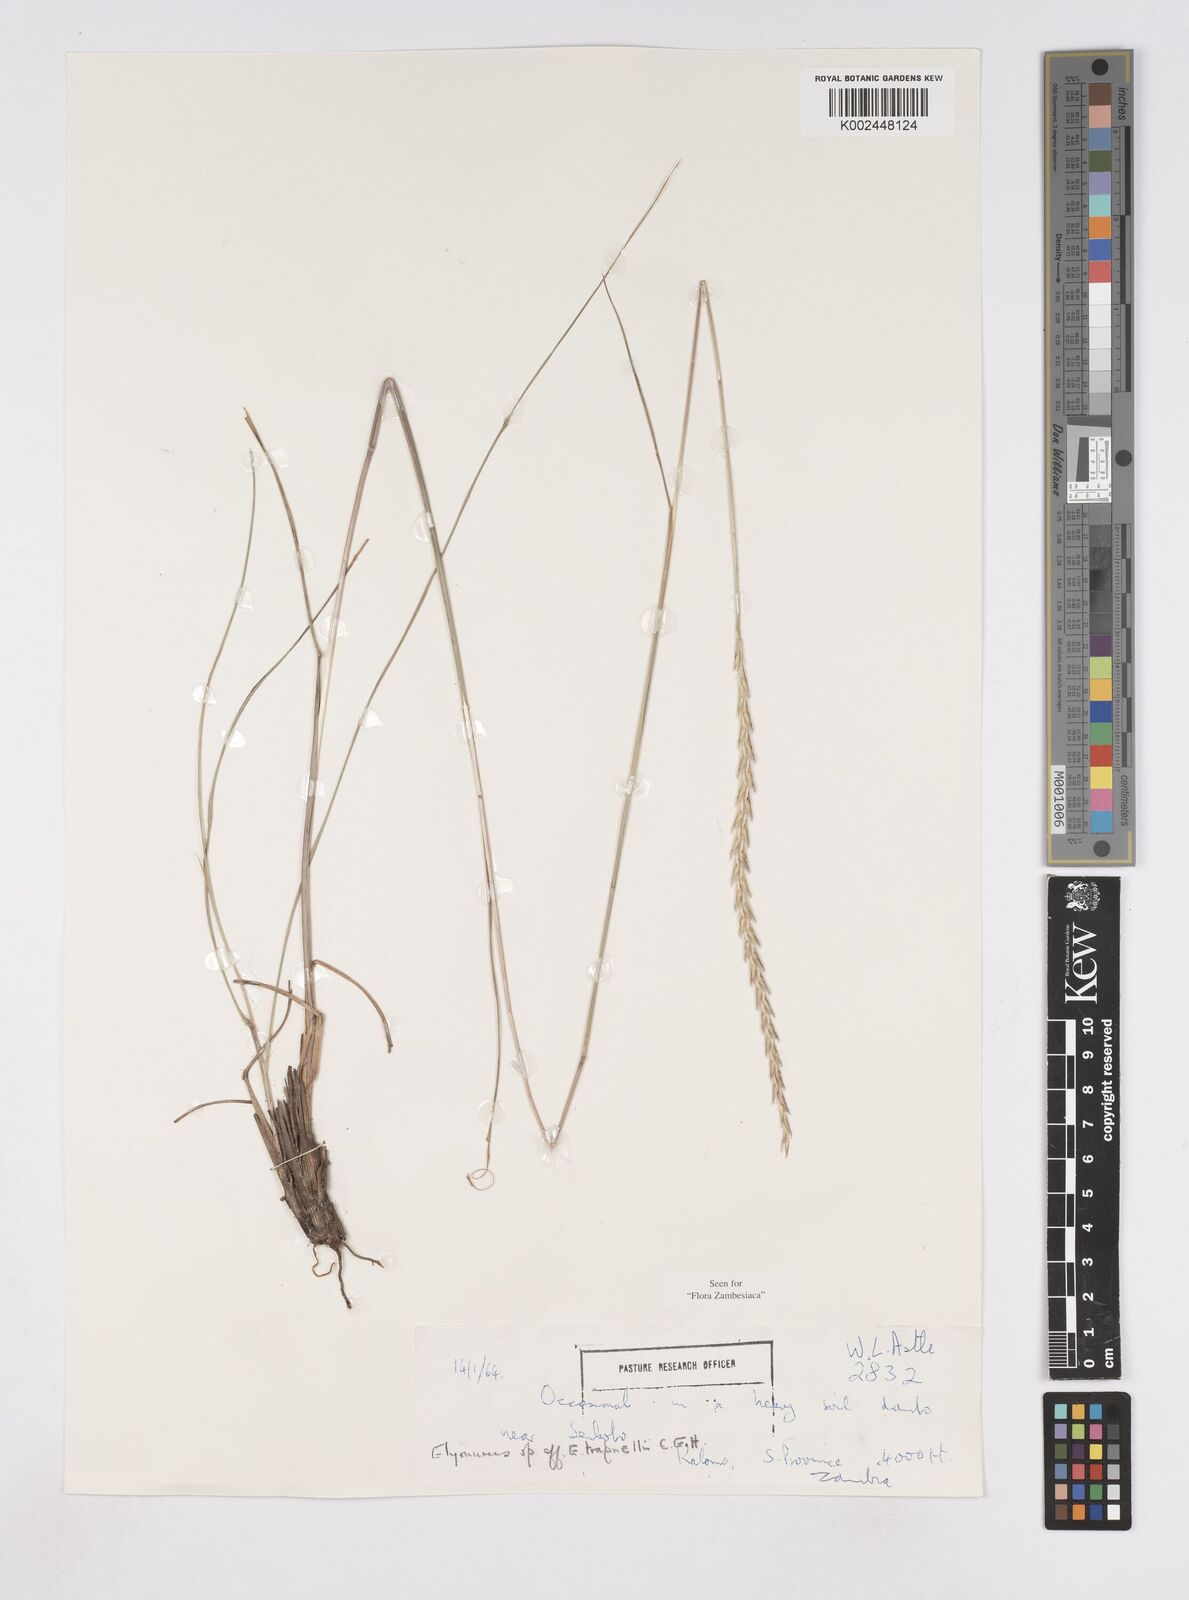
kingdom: Plantae
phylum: Tracheophyta
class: Liliopsida
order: Poales
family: Poaceae
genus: Elionurus
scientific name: Elionurus tripsacoides
